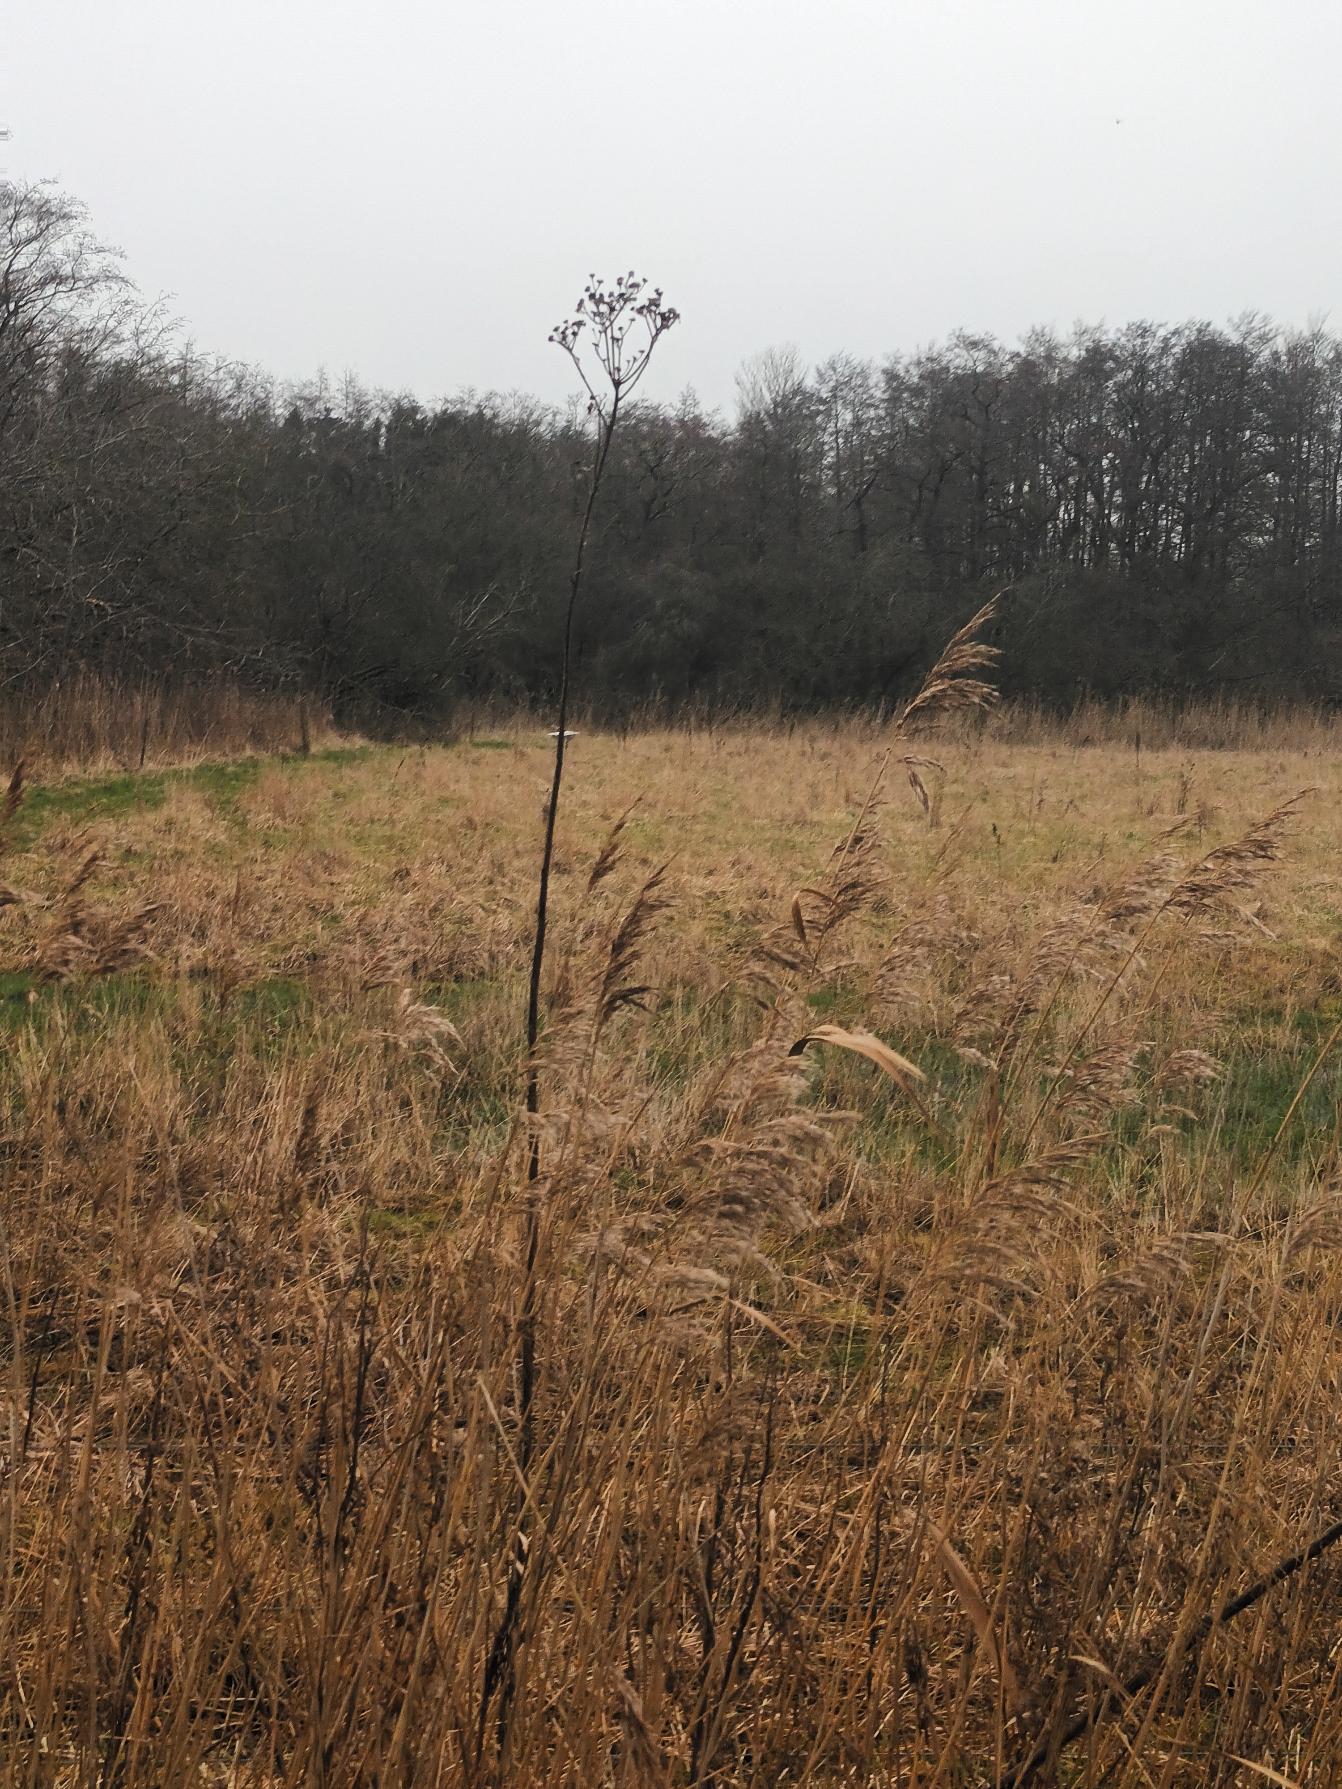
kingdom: Plantae
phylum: Tracheophyta
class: Magnoliopsida
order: Asterales
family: Asteraceae
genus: Sonchus
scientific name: Sonchus palustris
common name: Kær-svinemælk
